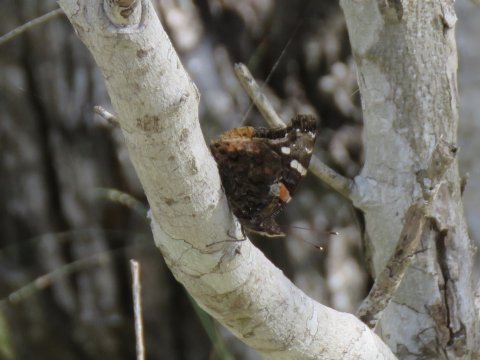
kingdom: Animalia
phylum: Arthropoda
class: Insecta
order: Lepidoptera
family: Nymphalidae
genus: Vanessa
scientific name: Vanessa atalanta
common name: Red Admiral
